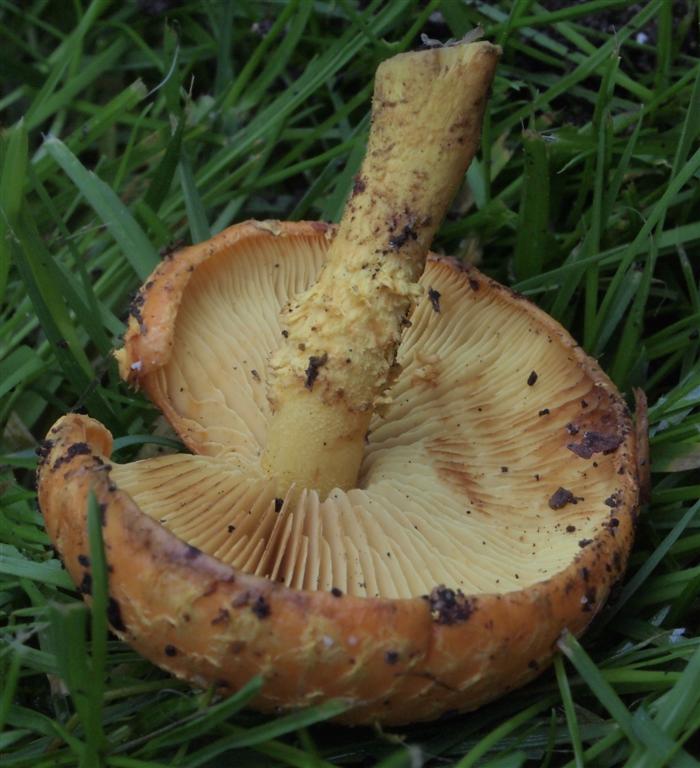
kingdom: Fungi
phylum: Basidiomycota
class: Agaricomycetes
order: Agaricales
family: Strophariaceae
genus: Pholiota
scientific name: Pholiota flammans
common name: flamme-skælhat
